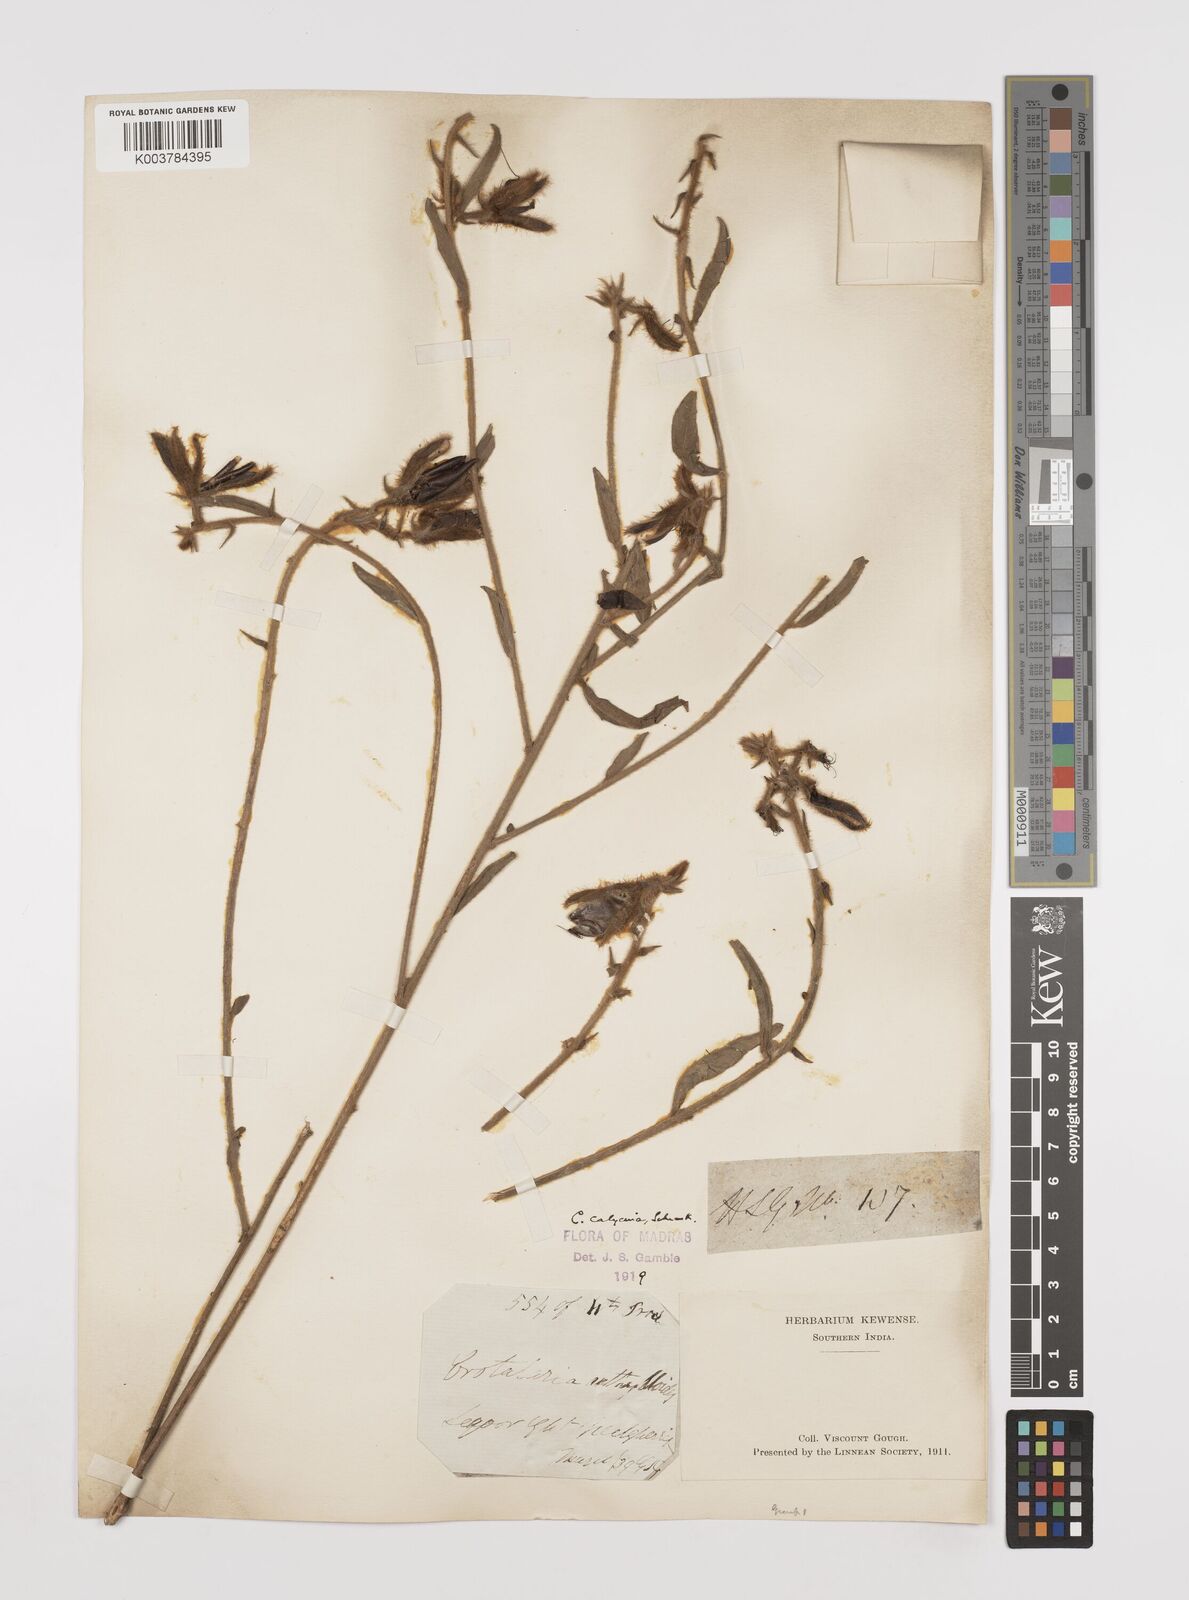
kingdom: Plantae
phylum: Tracheophyta
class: Magnoliopsida
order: Fabales
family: Fabaceae
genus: Crotalaria
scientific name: Crotalaria calycina
